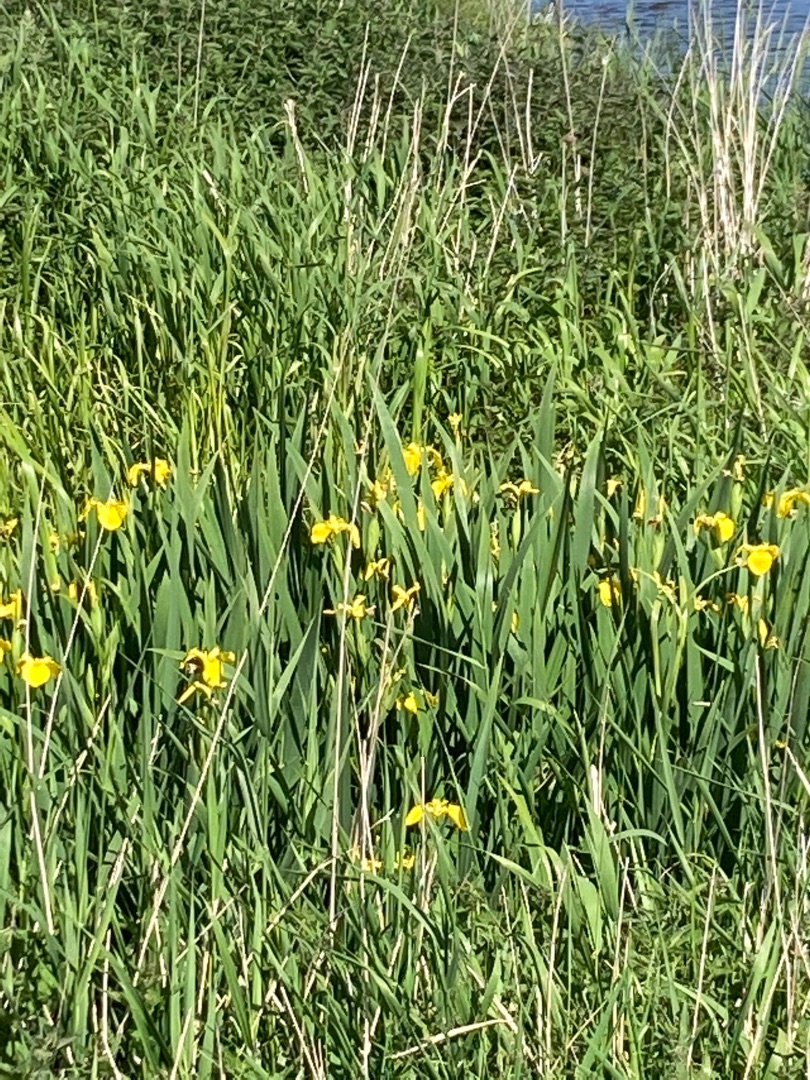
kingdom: Plantae
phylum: Tracheophyta
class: Liliopsida
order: Asparagales
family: Iridaceae
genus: Iris
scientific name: Iris pseudacorus
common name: Gul iris
